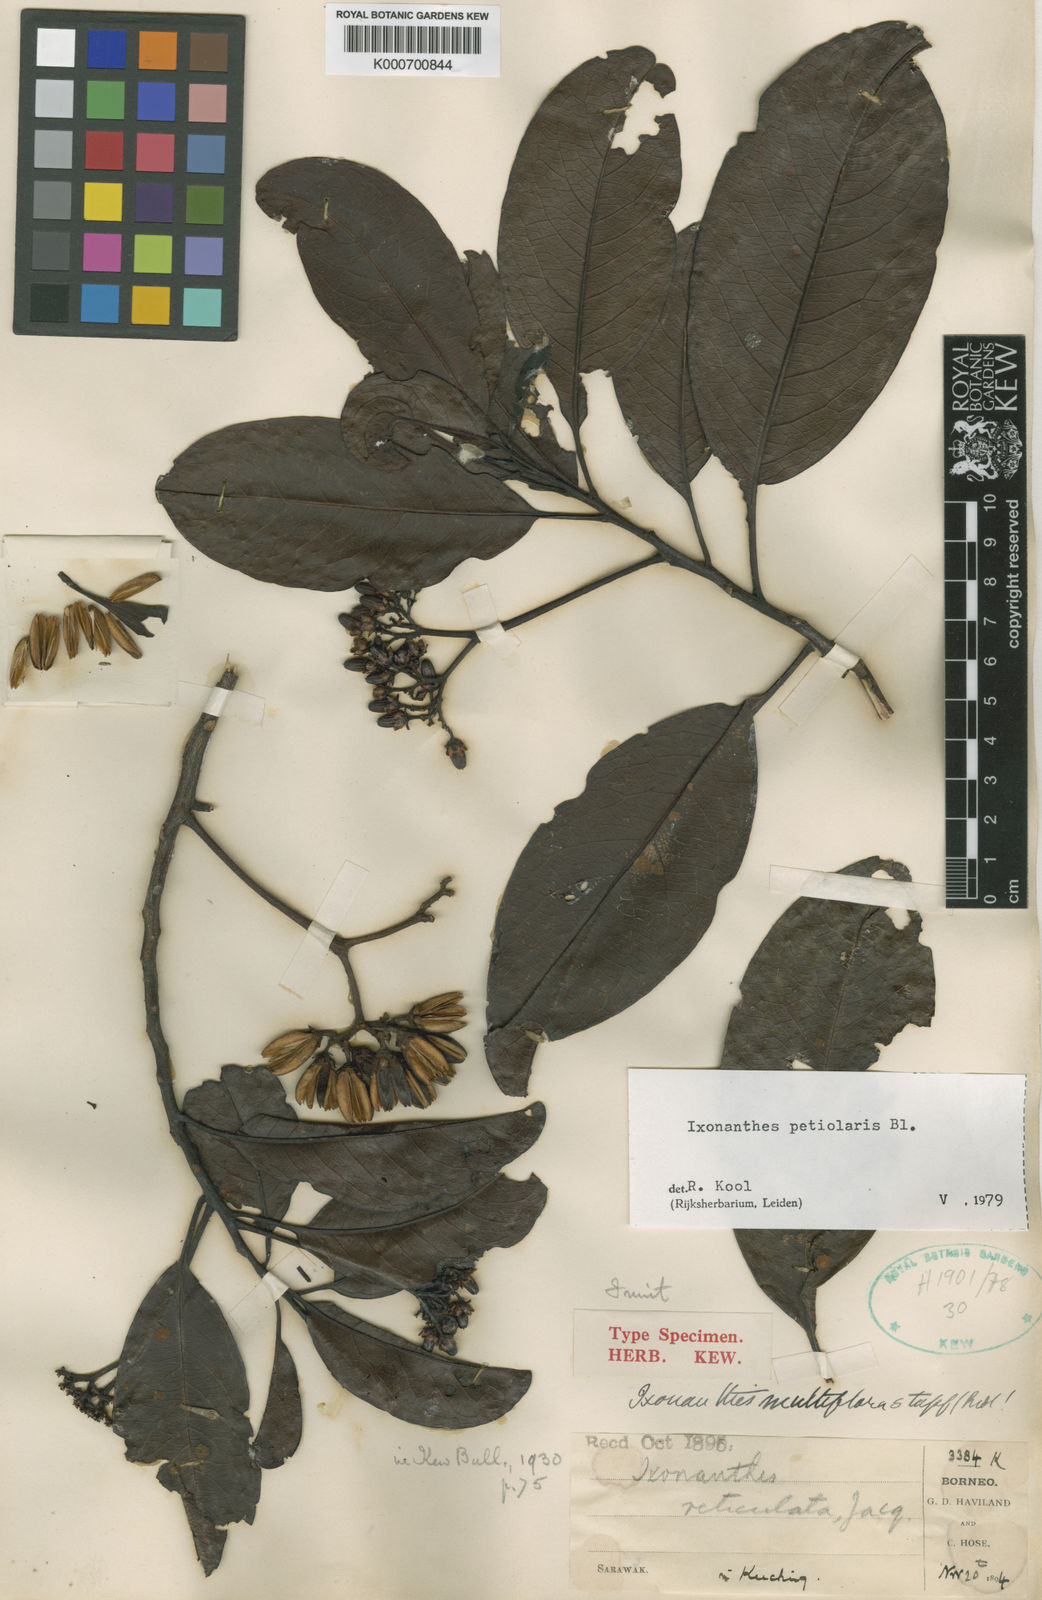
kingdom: Plantae
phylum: Tracheophyta
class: Magnoliopsida
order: Malpighiales
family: Ixonanthaceae
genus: Ixonanthes
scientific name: Ixonanthes petiolaris
